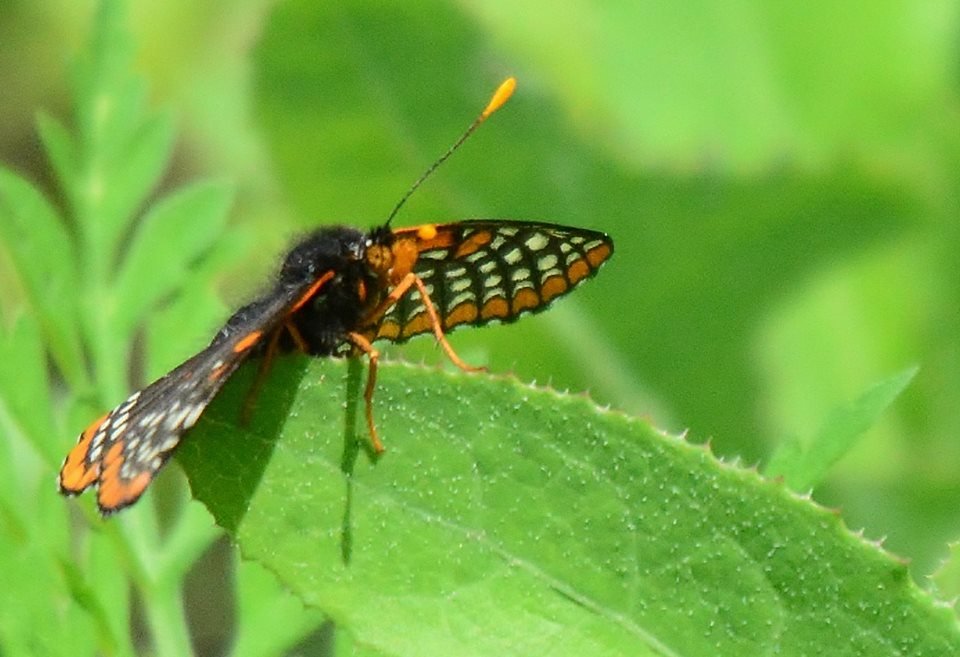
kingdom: Animalia
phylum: Arthropoda
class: Insecta
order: Lepidoptera
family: Nymphalidae
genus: Euphydryas
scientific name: Euphydryas phaeton
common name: Baltimore Checkerspot
